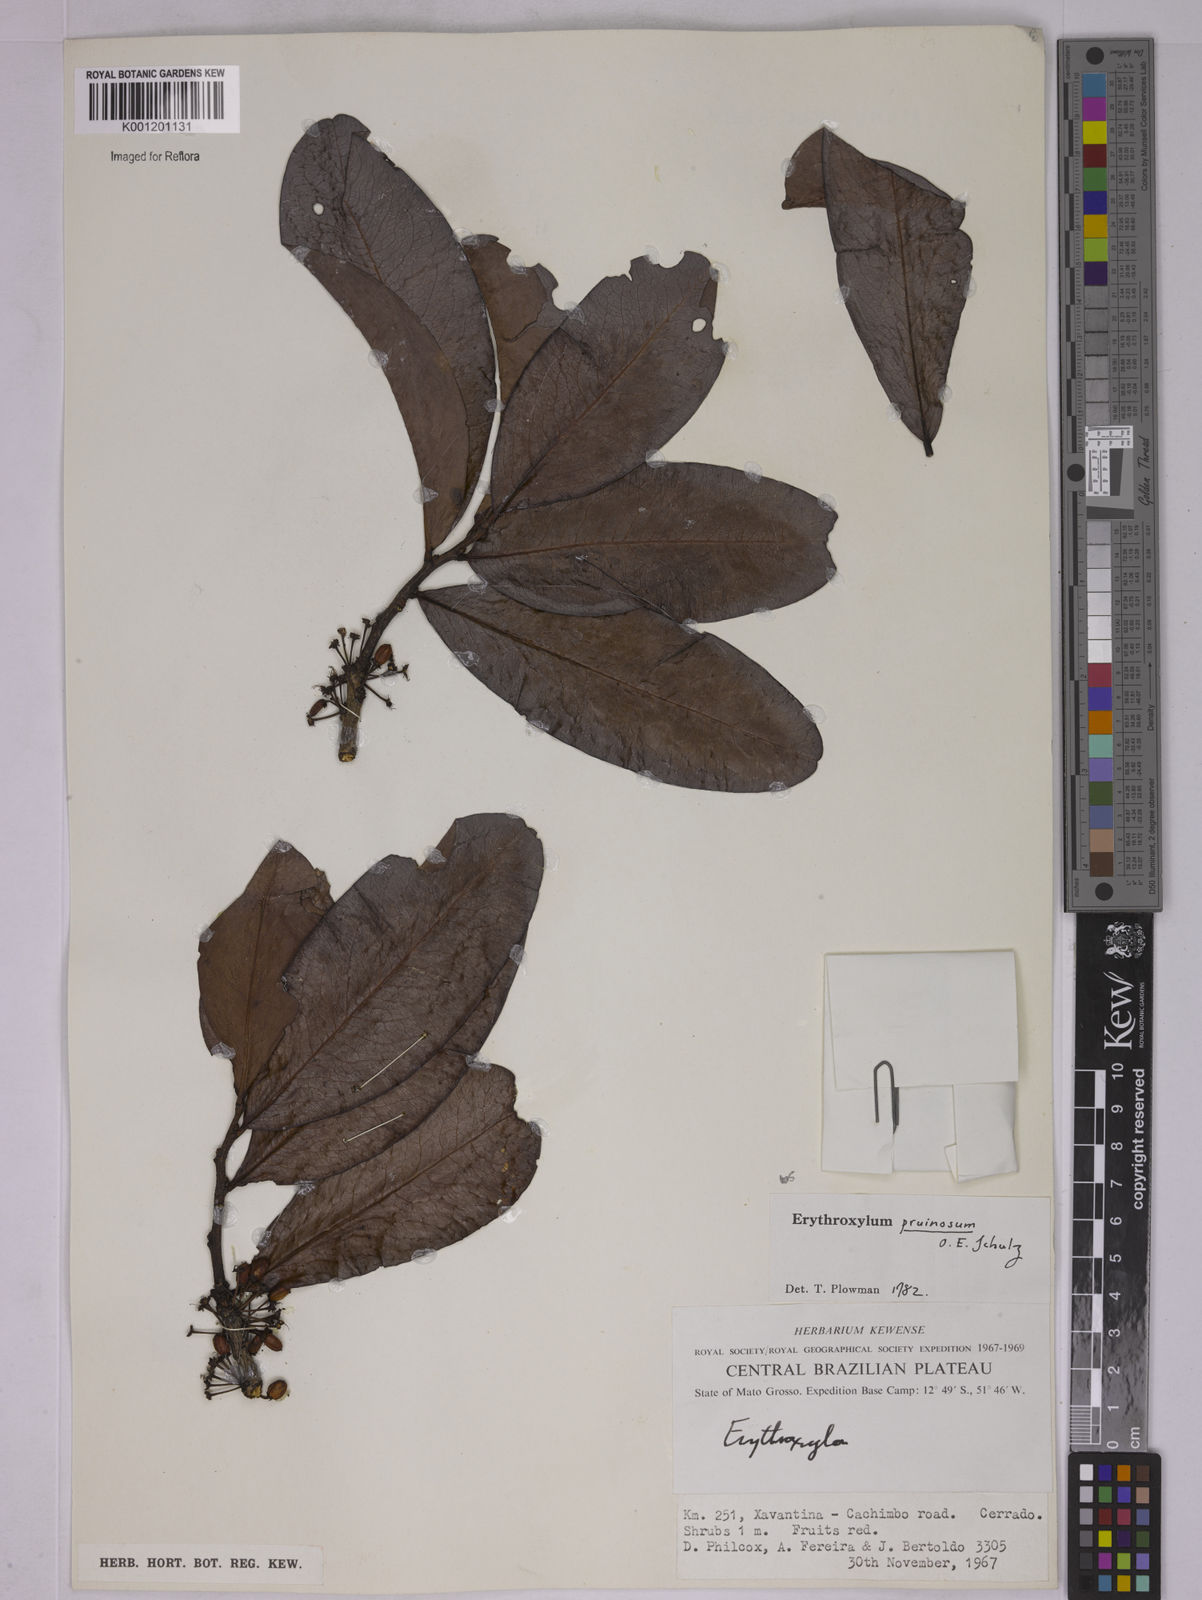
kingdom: Plantae
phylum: Tracheophyta
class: Magnoliopsida
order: Malpighiales
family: Erythroxylaceae
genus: Erythroxylum
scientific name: Erythroxylum pruinosum
